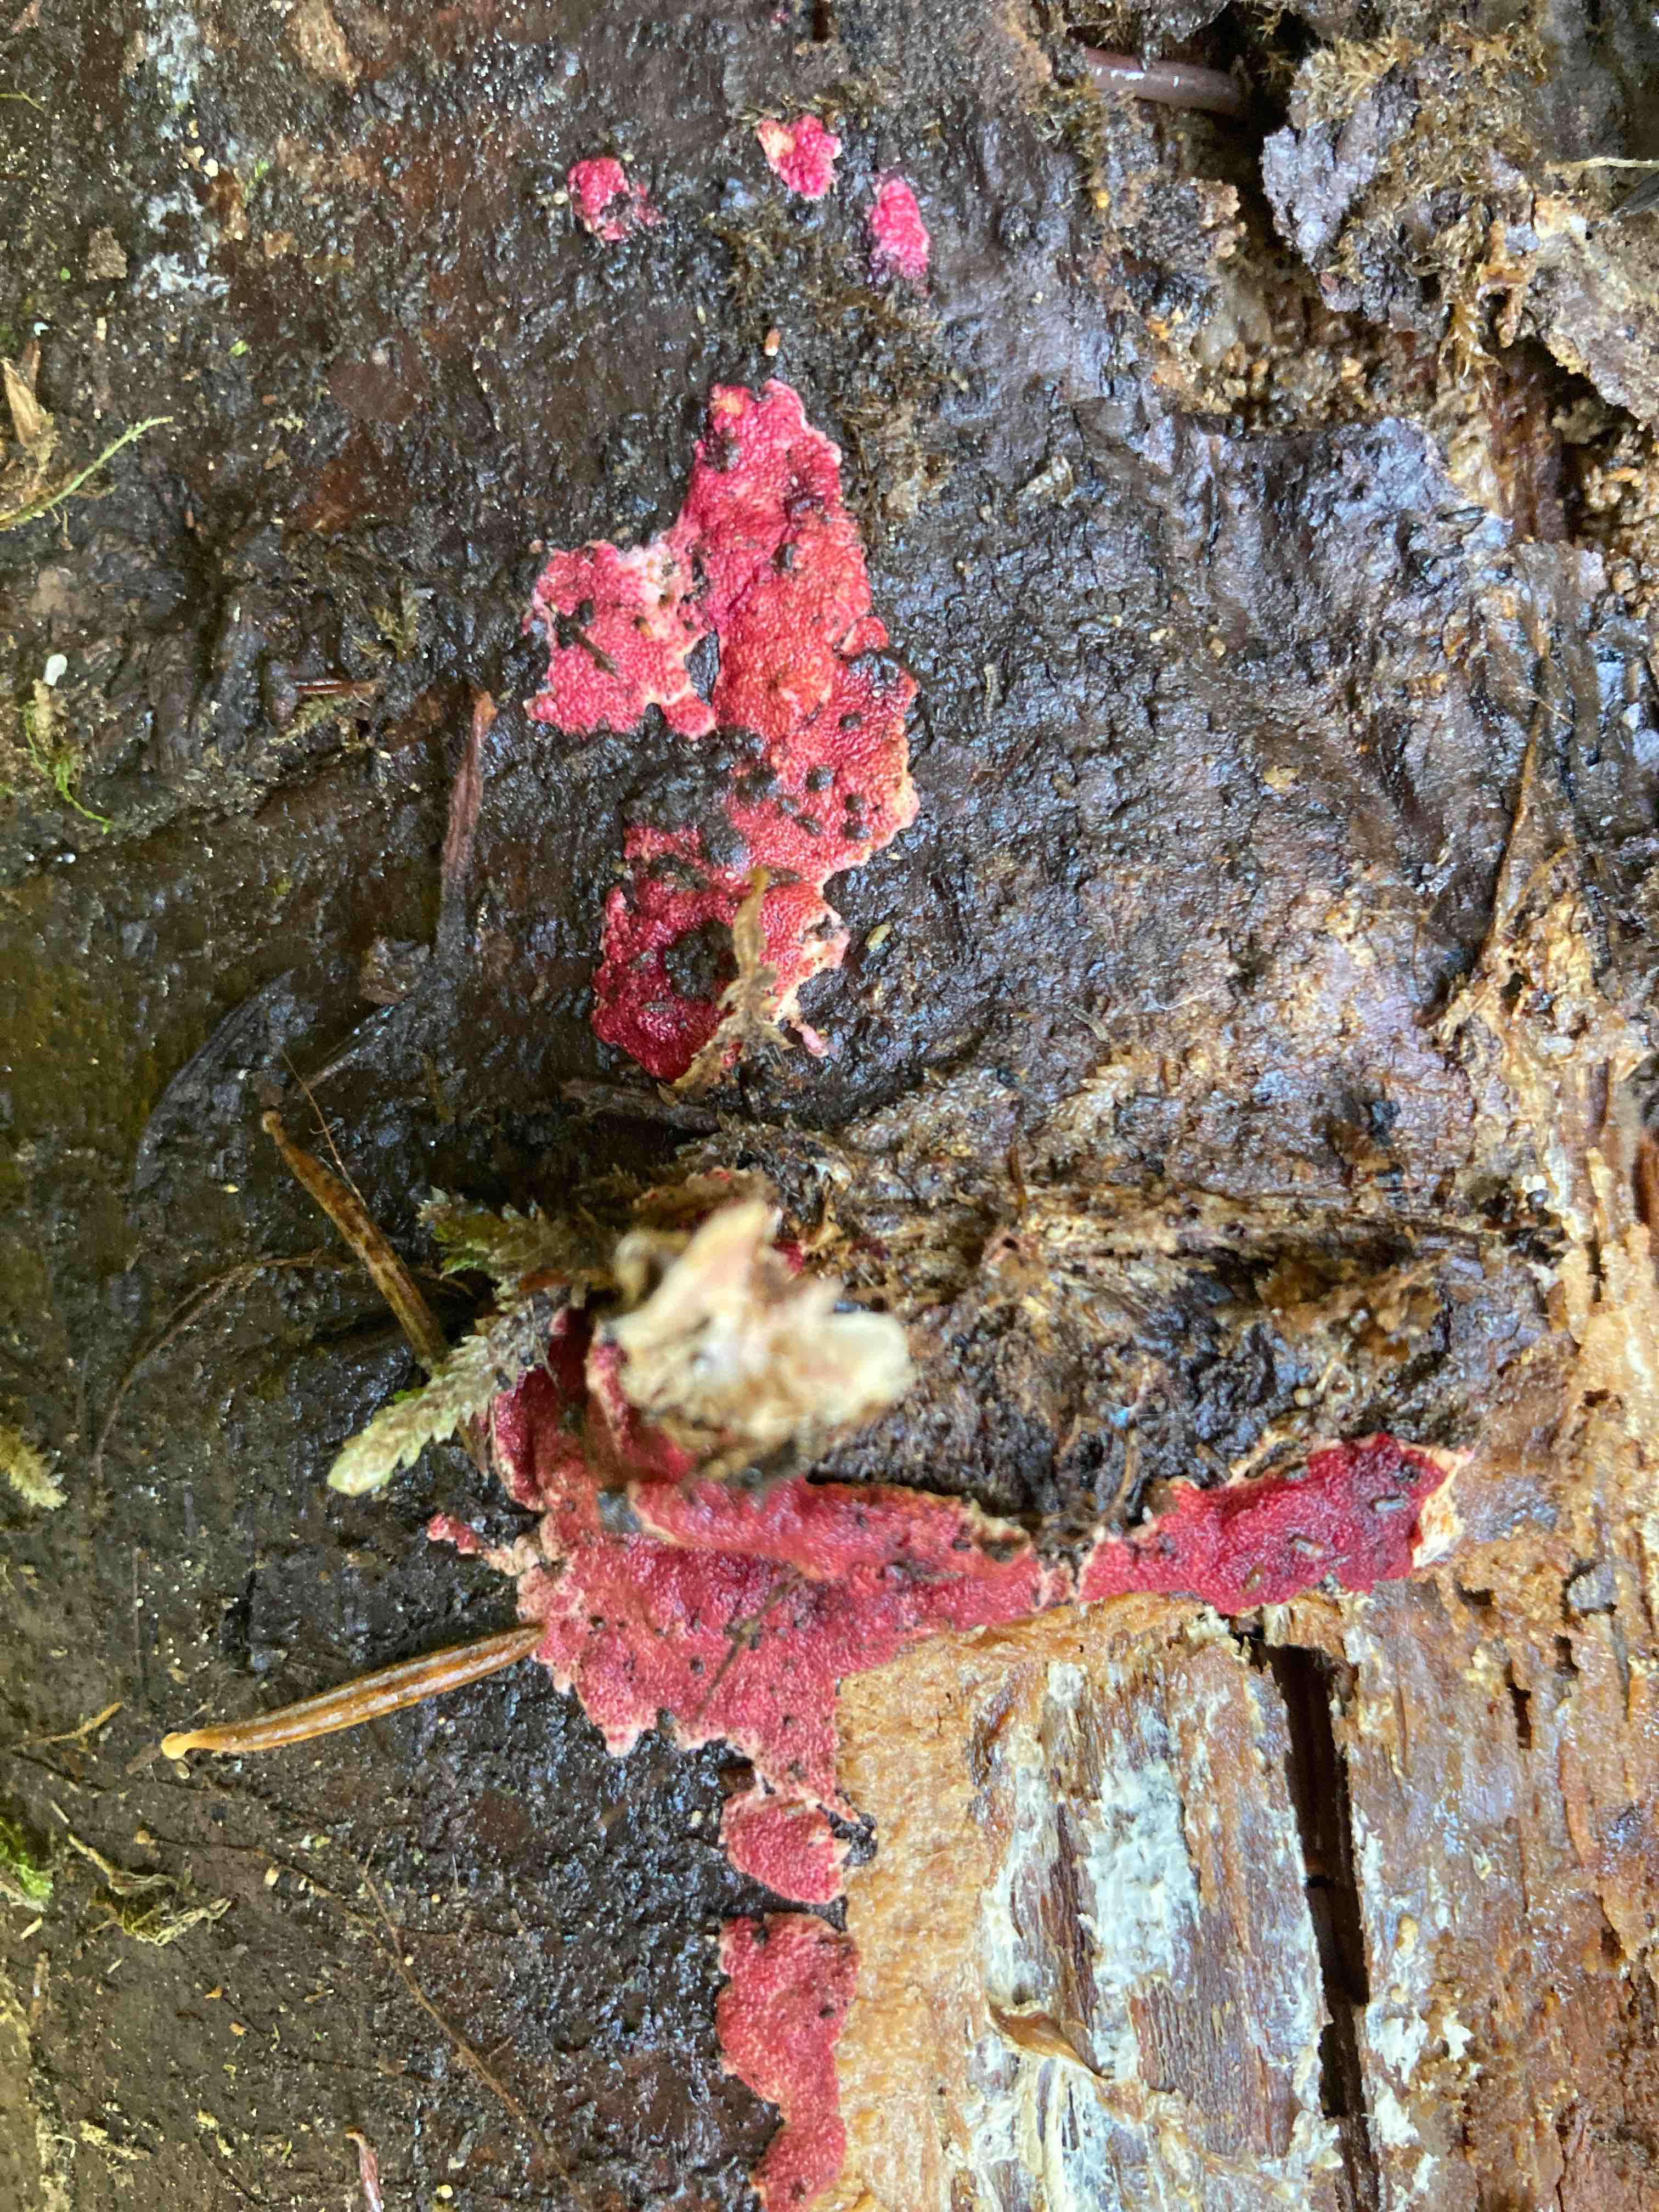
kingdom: Fungi
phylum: Ascomycota
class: Sordariomycetes
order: Hypocreales
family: Hypocreaceae
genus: Hypomyces
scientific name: Hypomyces rosellus
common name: rosa snylteskorpe
